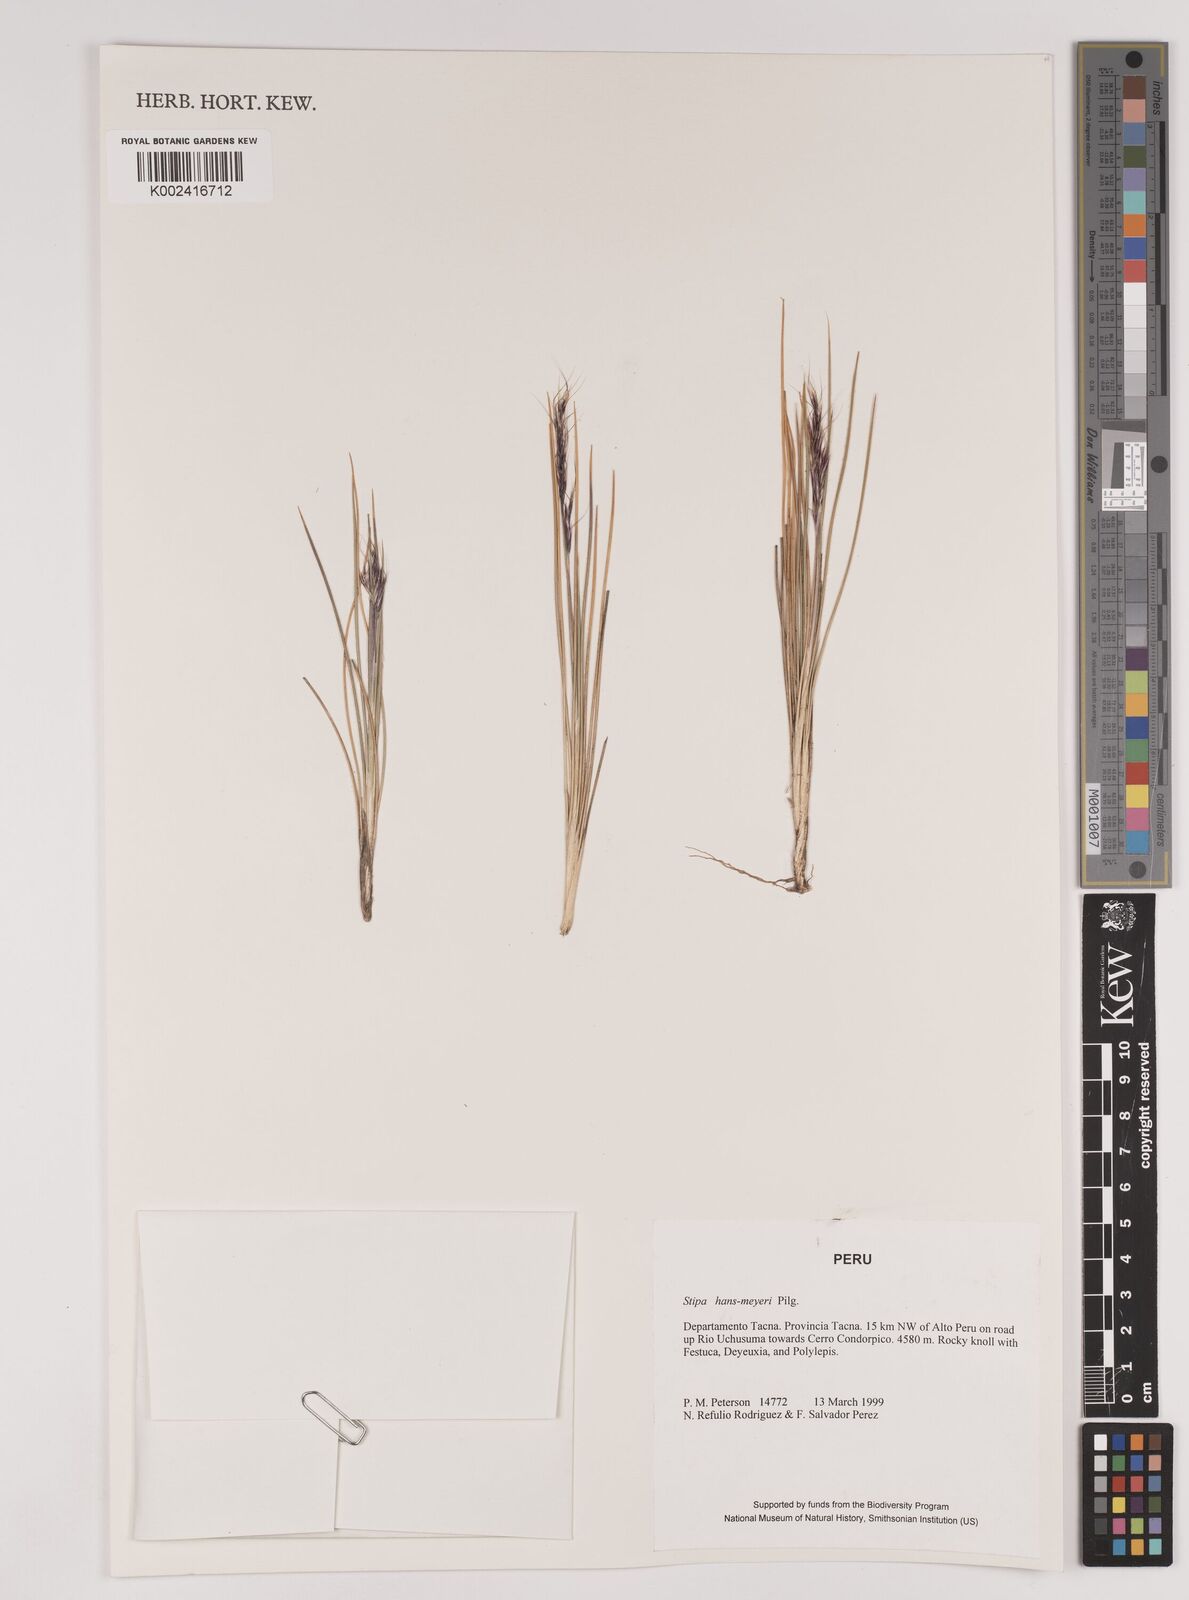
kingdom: Plantae
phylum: Tracheophyta
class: Liliopsida
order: Poales
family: Poaceae
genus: Stipa
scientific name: Stipa hans-meyeri
